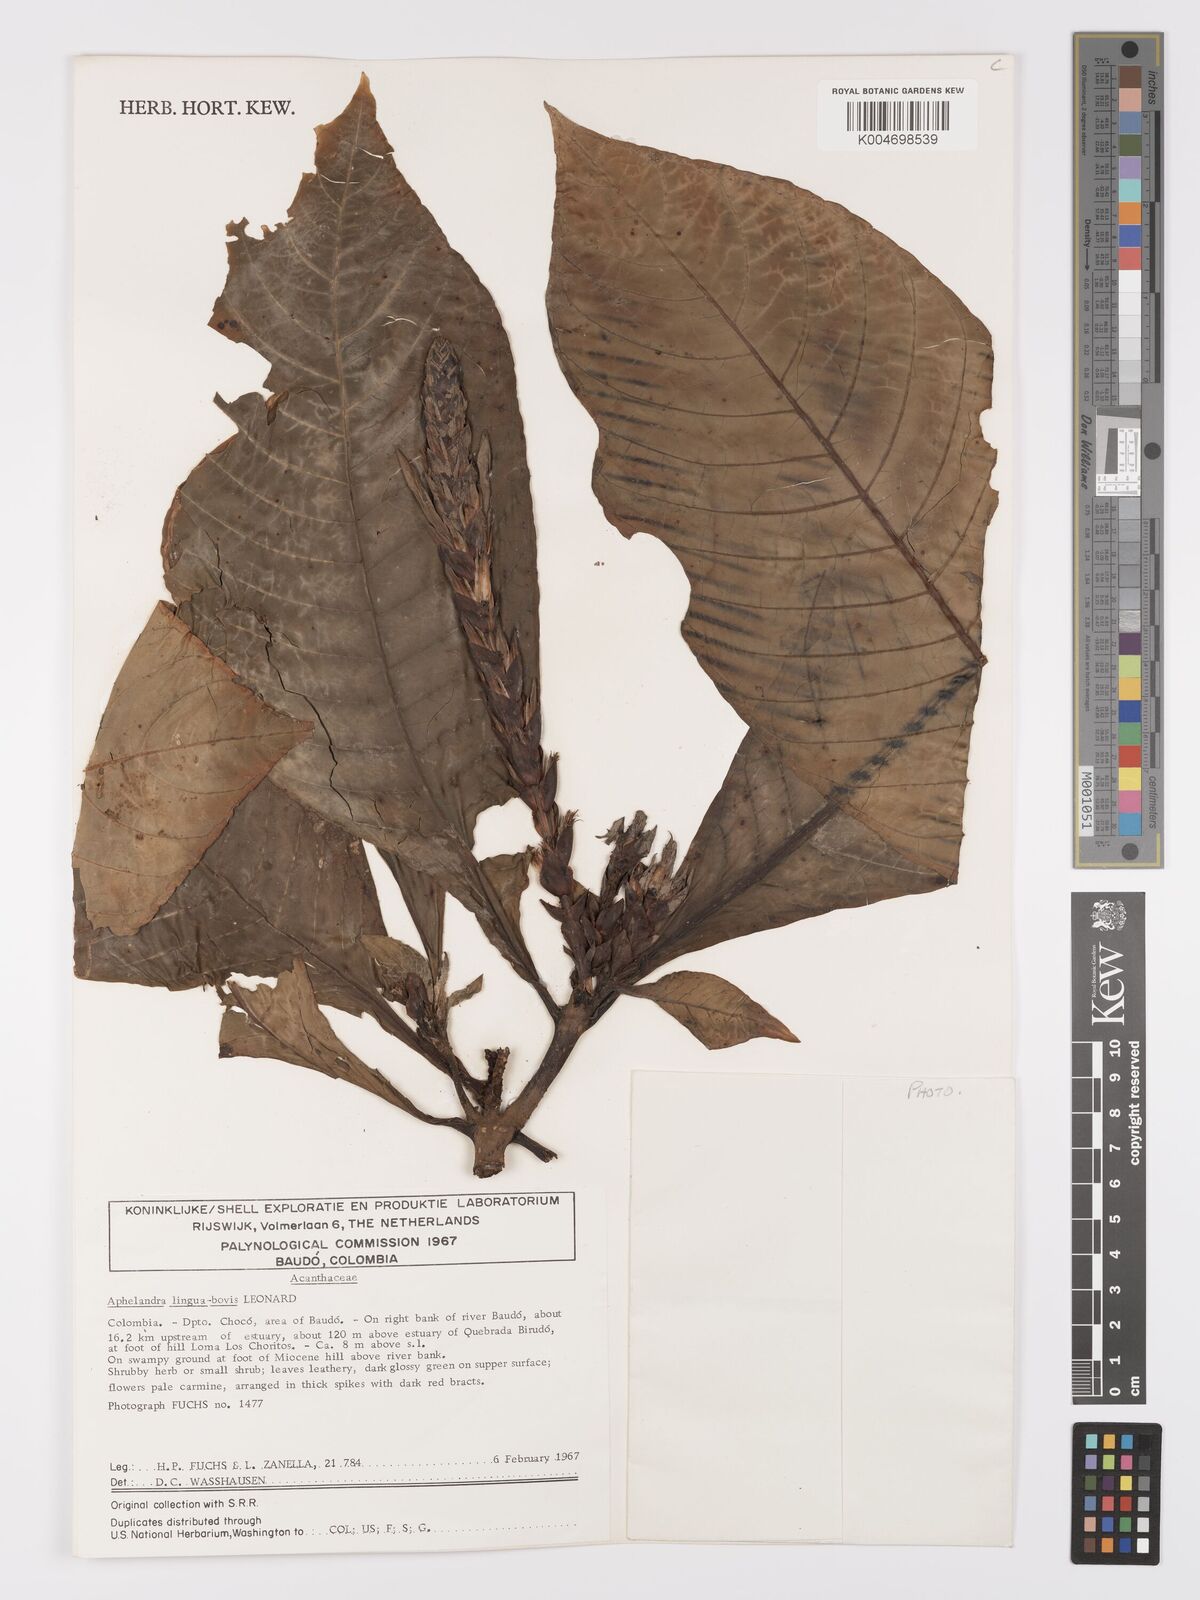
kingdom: Plantae
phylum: Tracheophyta
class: Magnoliopsida
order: Lamiales
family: Acanthaceae
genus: Aphelandra
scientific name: Aphelandra lingua-bovis
